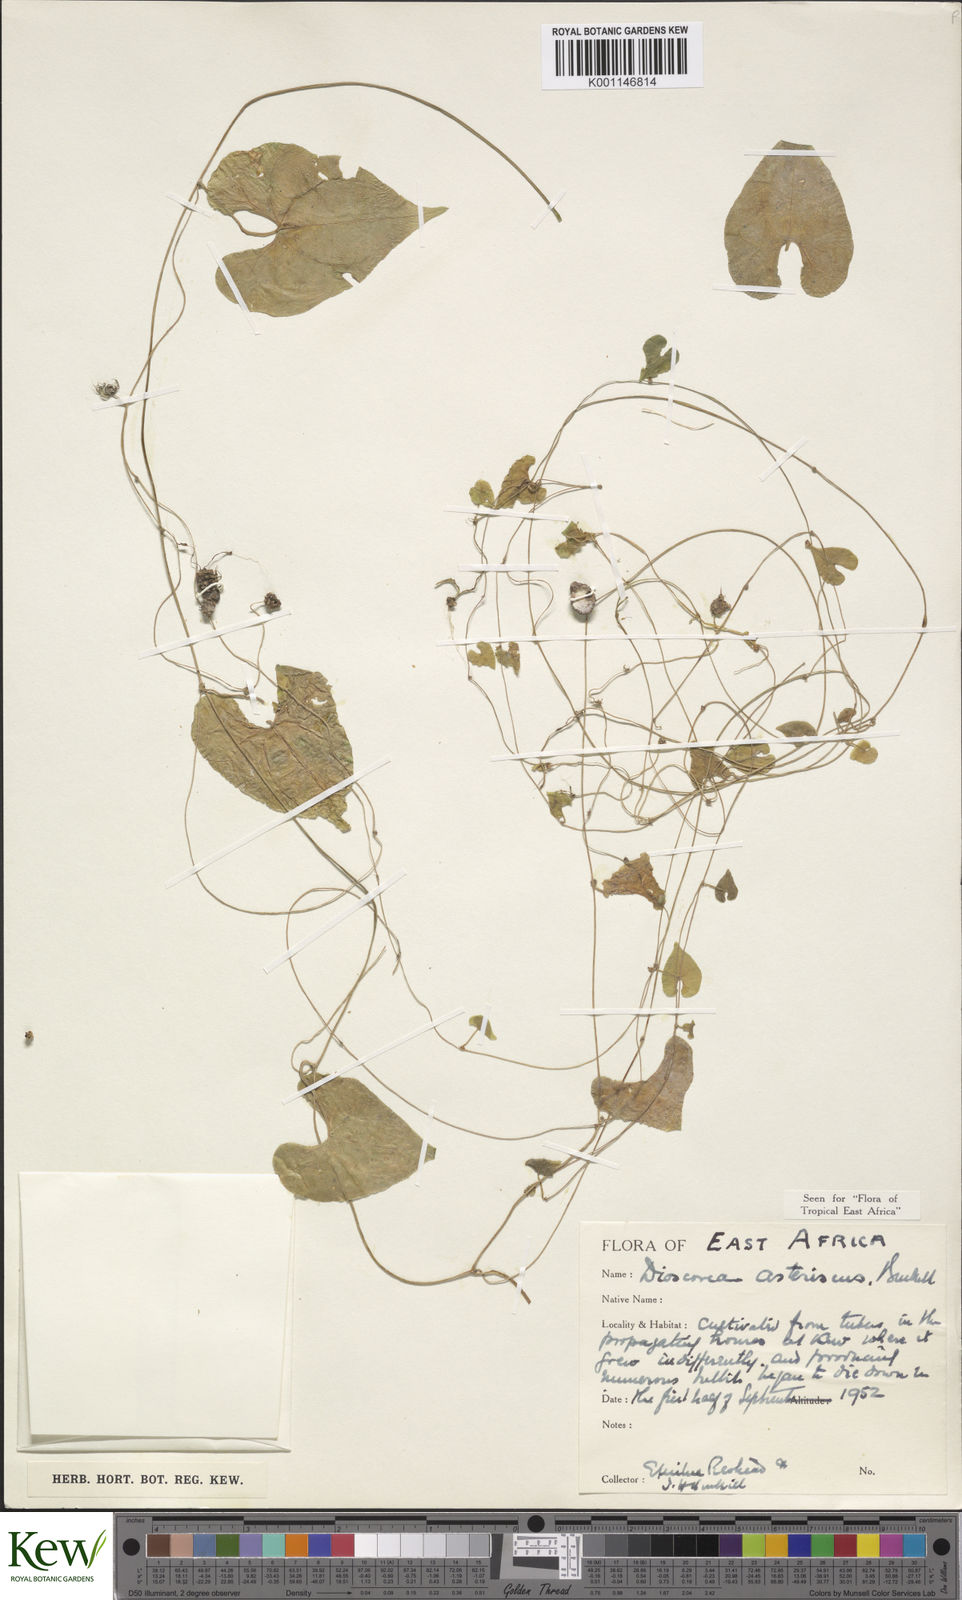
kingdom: Plantae
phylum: Tracheophyta
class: Liliopsida
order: Dioscoreales
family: Dioscoreaceae
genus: Dioscorea
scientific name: Dioscorea asteriscus
